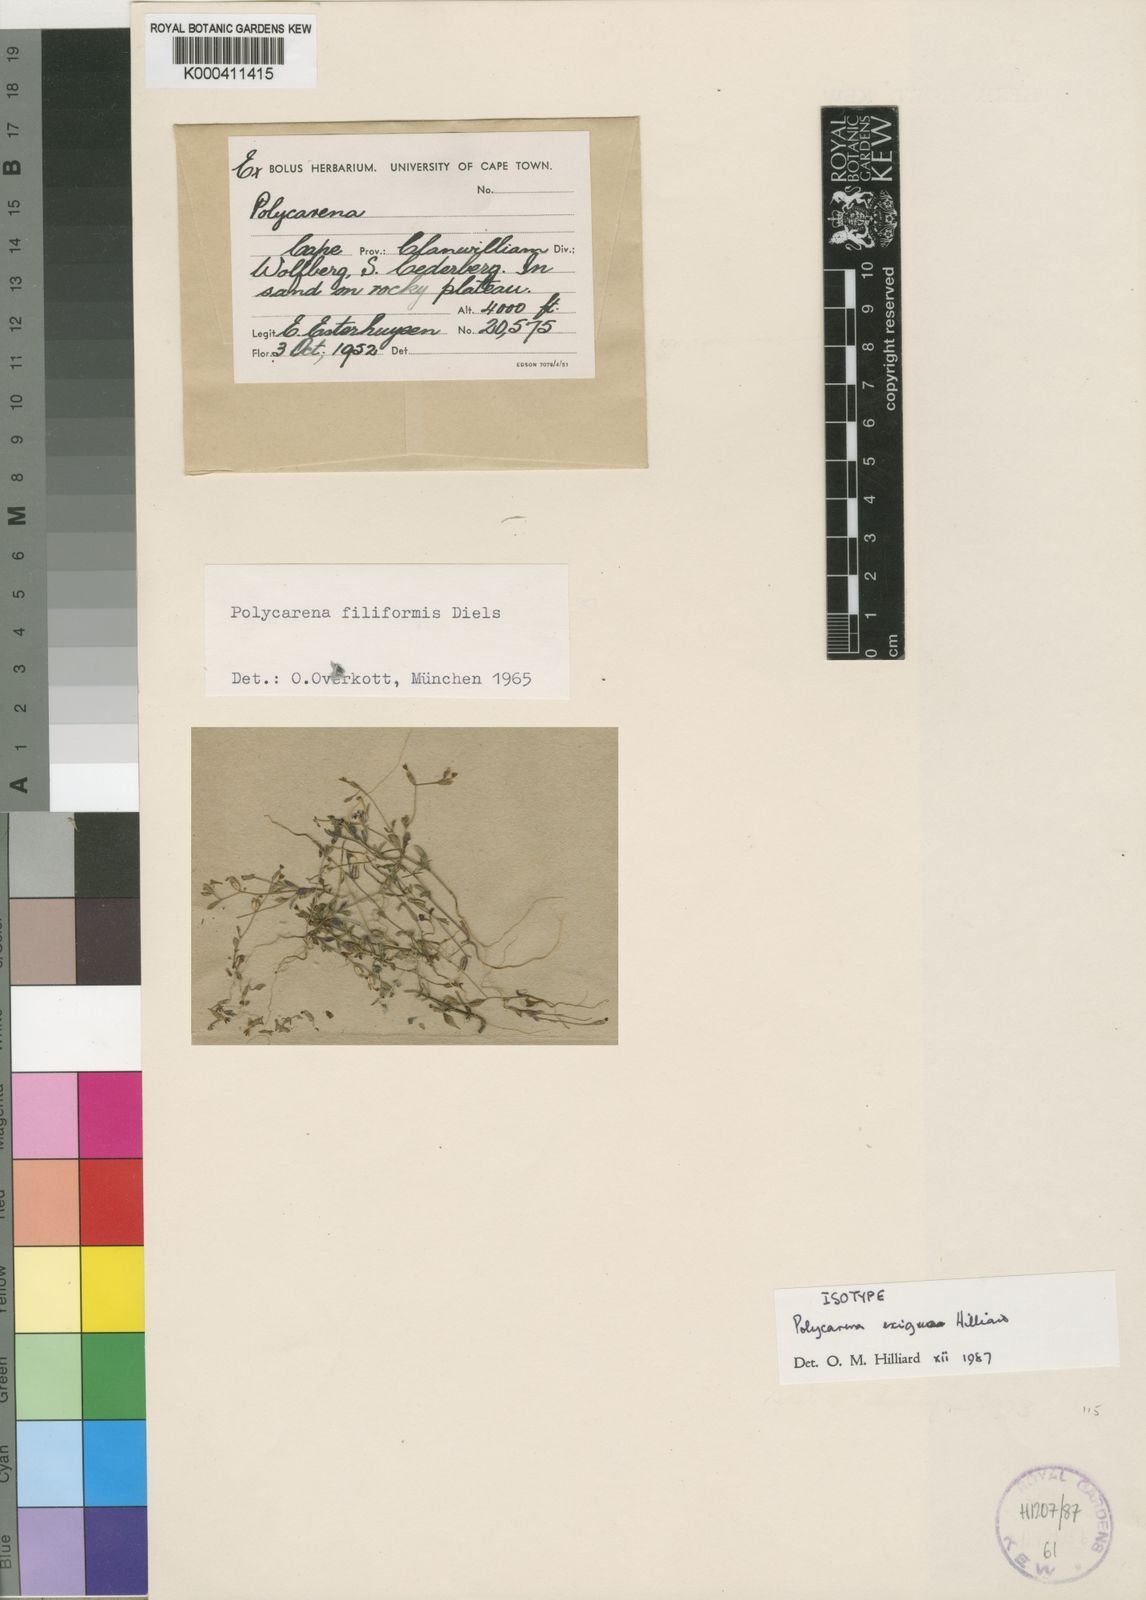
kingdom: Plantae
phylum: Tracheophyta
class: Magnoliopsida
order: Lamiales
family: Scrophulariaceae
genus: Polycarena
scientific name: Polycarena exigua
